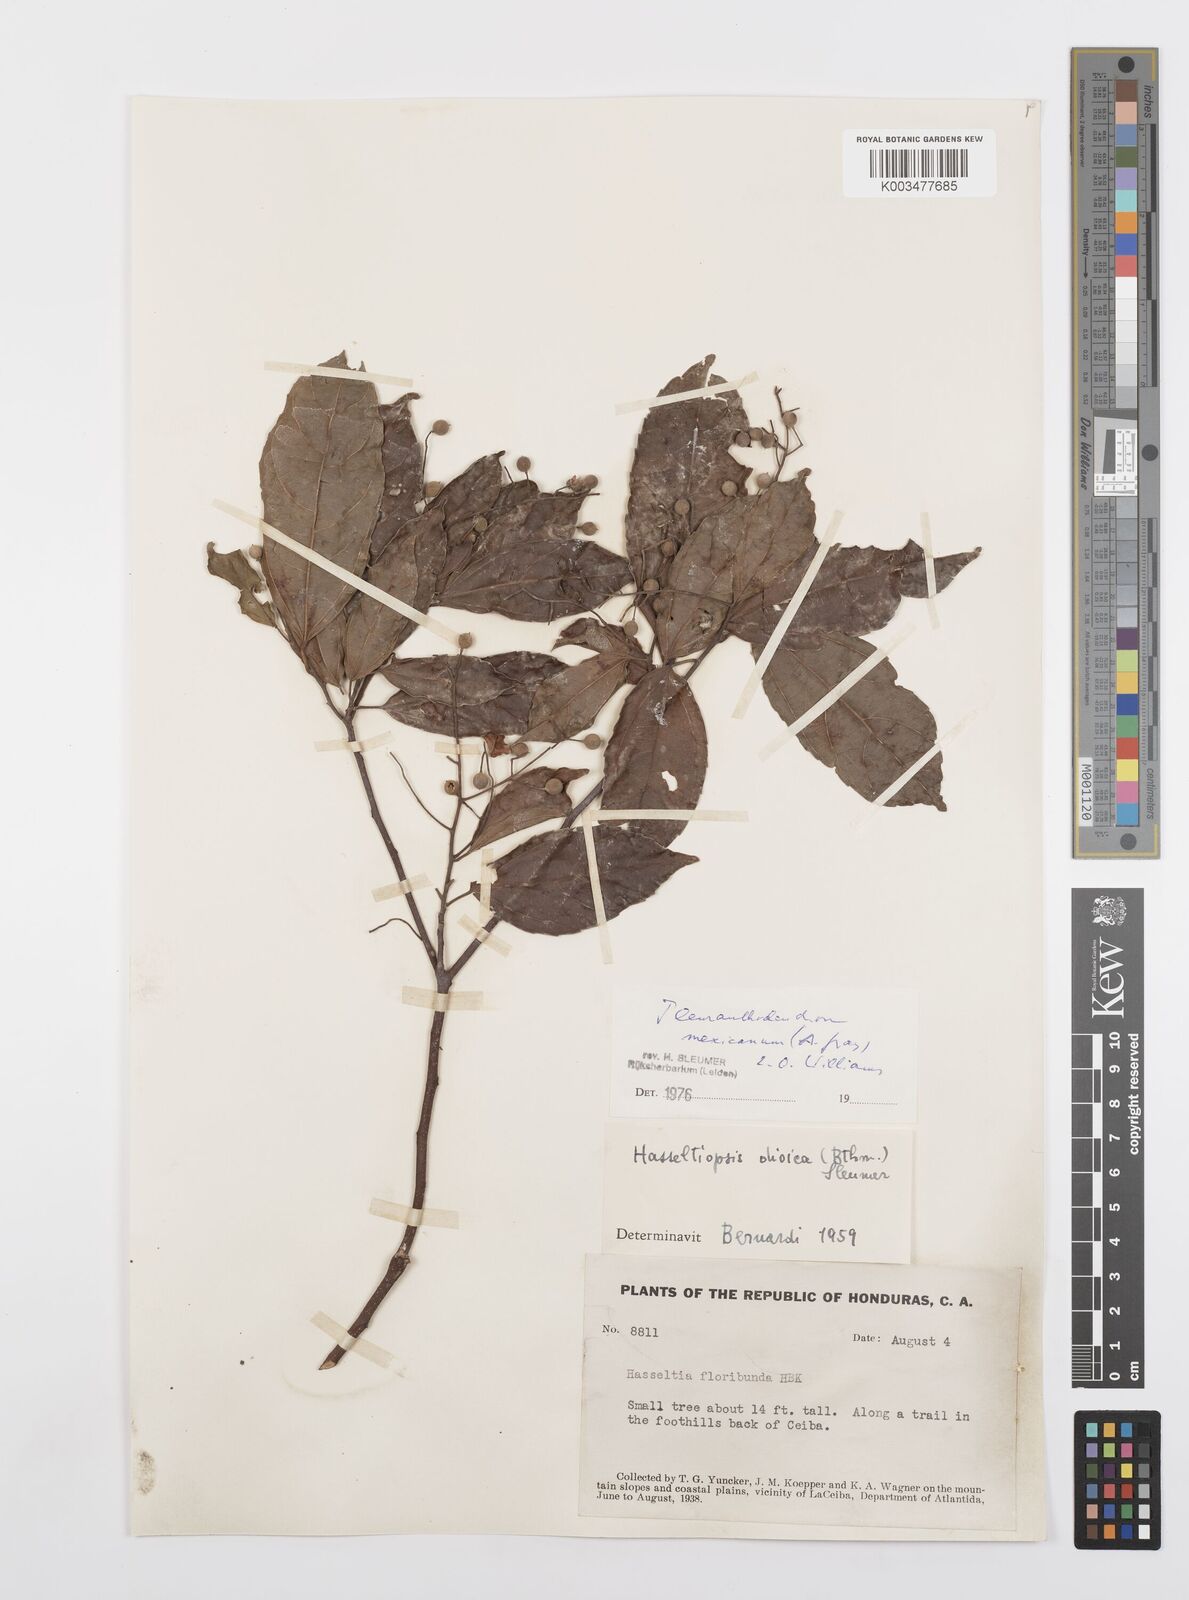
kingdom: Plantae
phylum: Tracheophyta
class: Magnoliopsida
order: Malpighiales
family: Salicaceae
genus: Pleuranthodendron
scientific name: Pleuranthodendron lindenii
